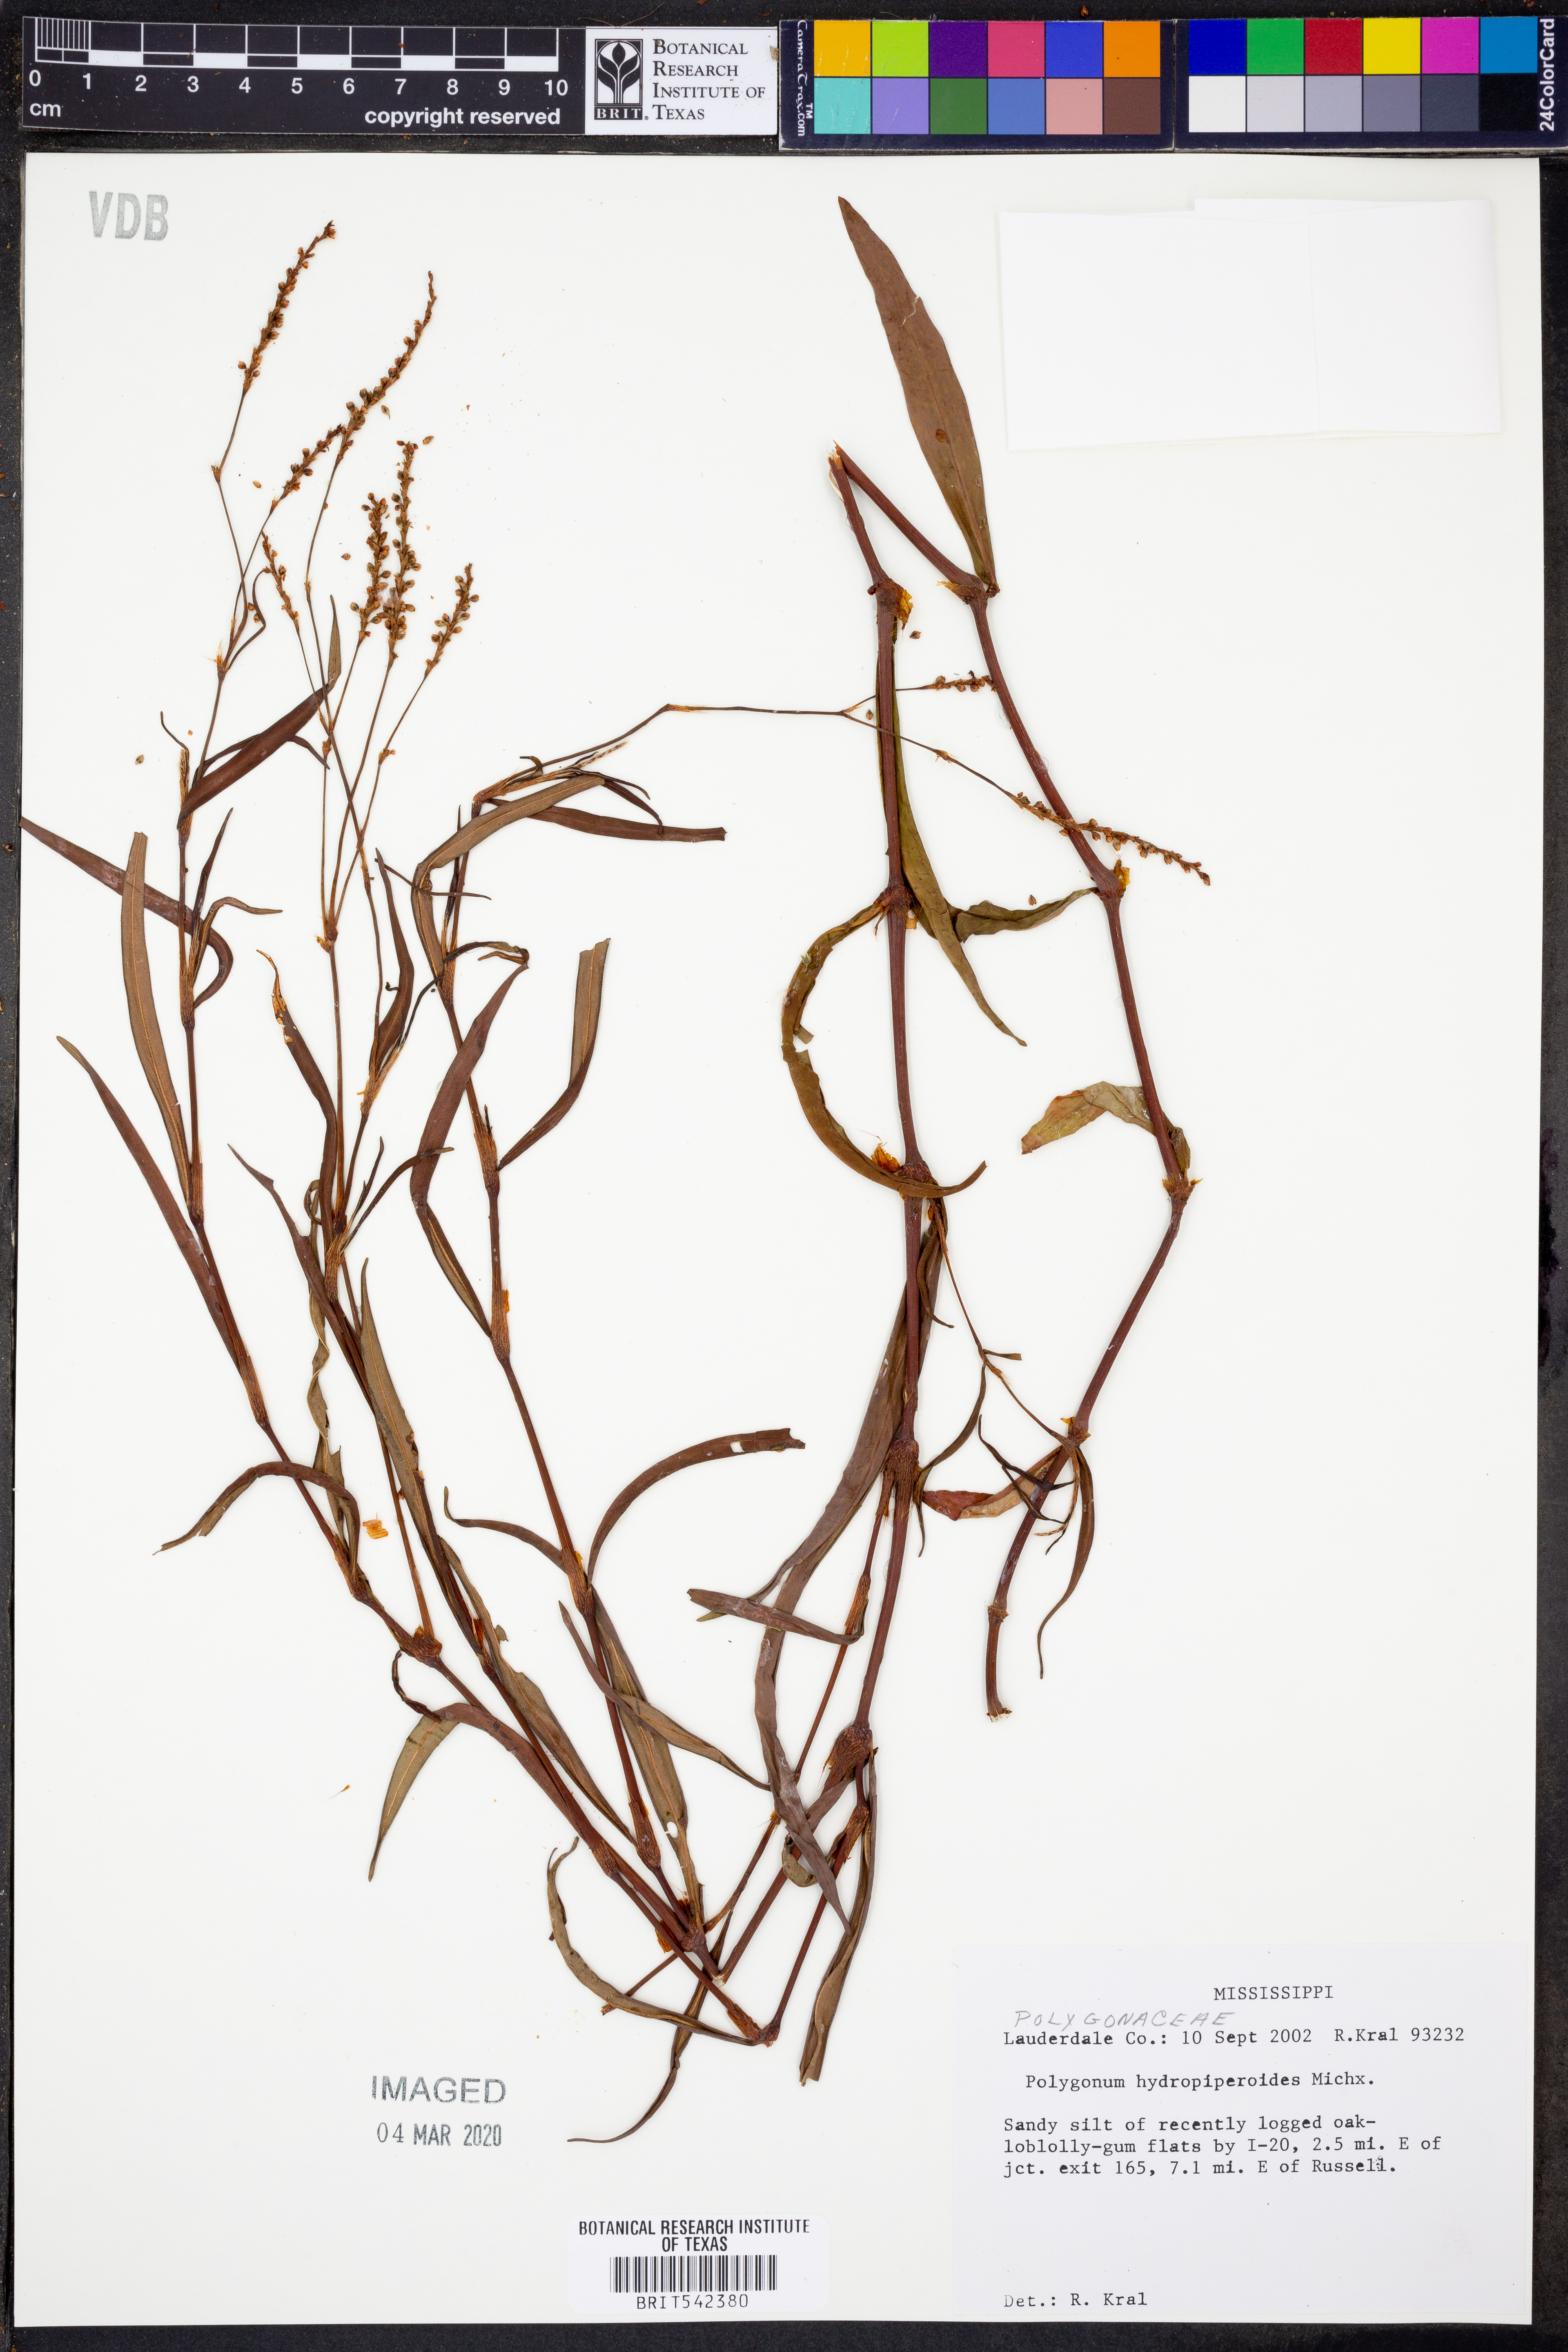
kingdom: Plantae
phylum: Tracheophyta
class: Magnoliopsida
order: Caryophyllales
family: Polygonaceae
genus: Persicaria
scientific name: Persicaria hydropiperoides
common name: Swamp smartweed
